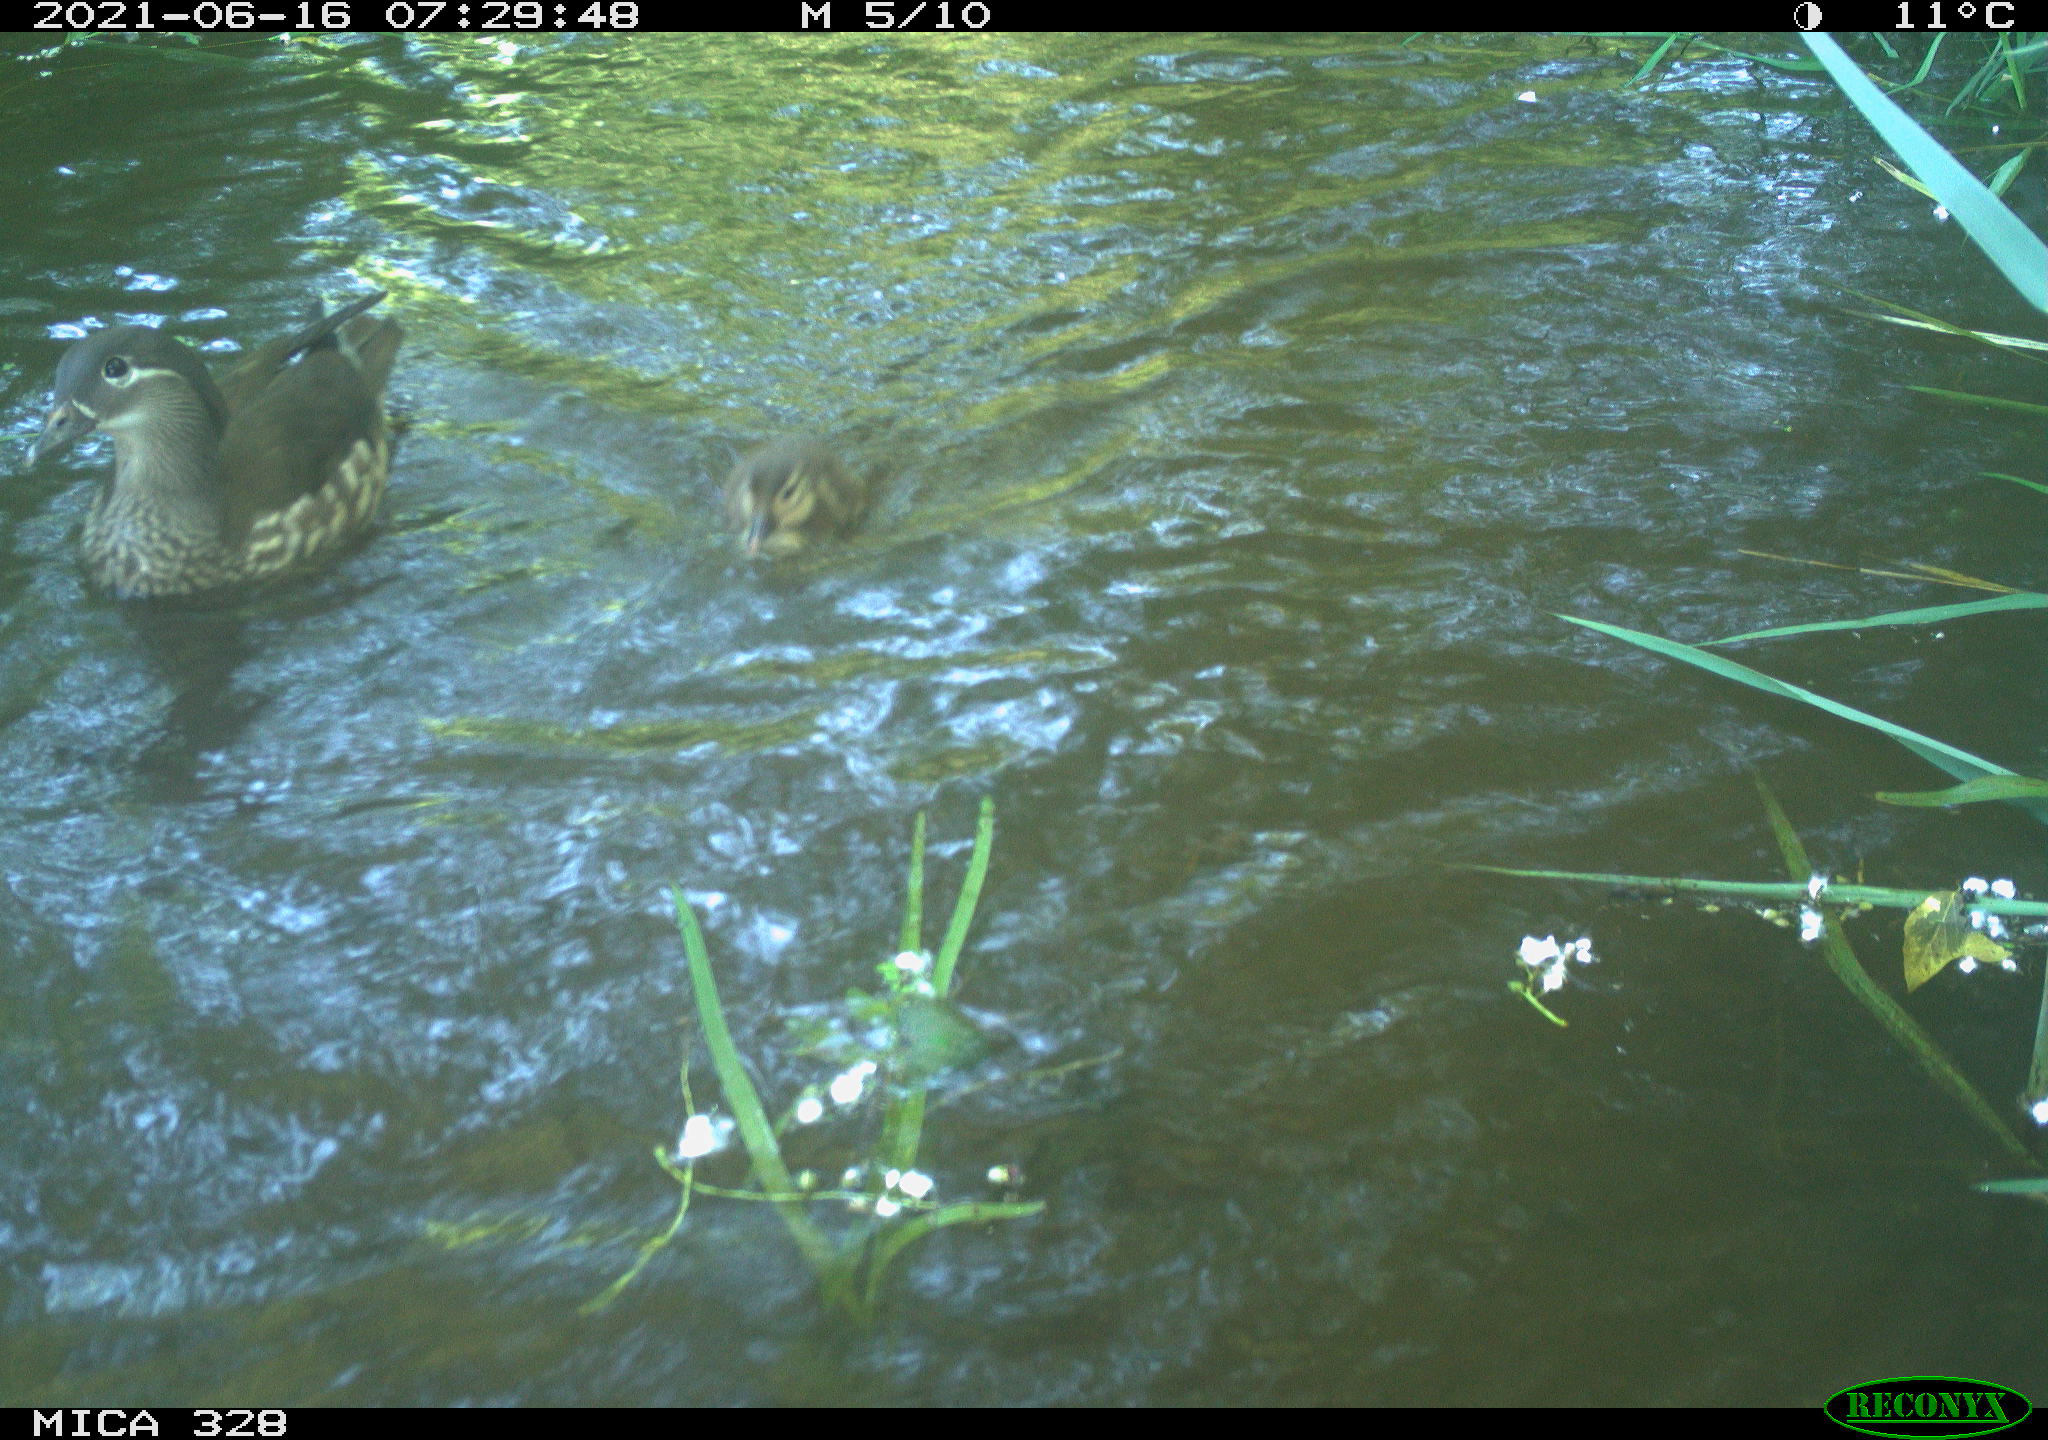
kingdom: Animalia
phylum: Chordata
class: Aves
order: Anseriformes
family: Anatidae
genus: Aix
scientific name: Aix galericulata
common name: Mandarin duck
